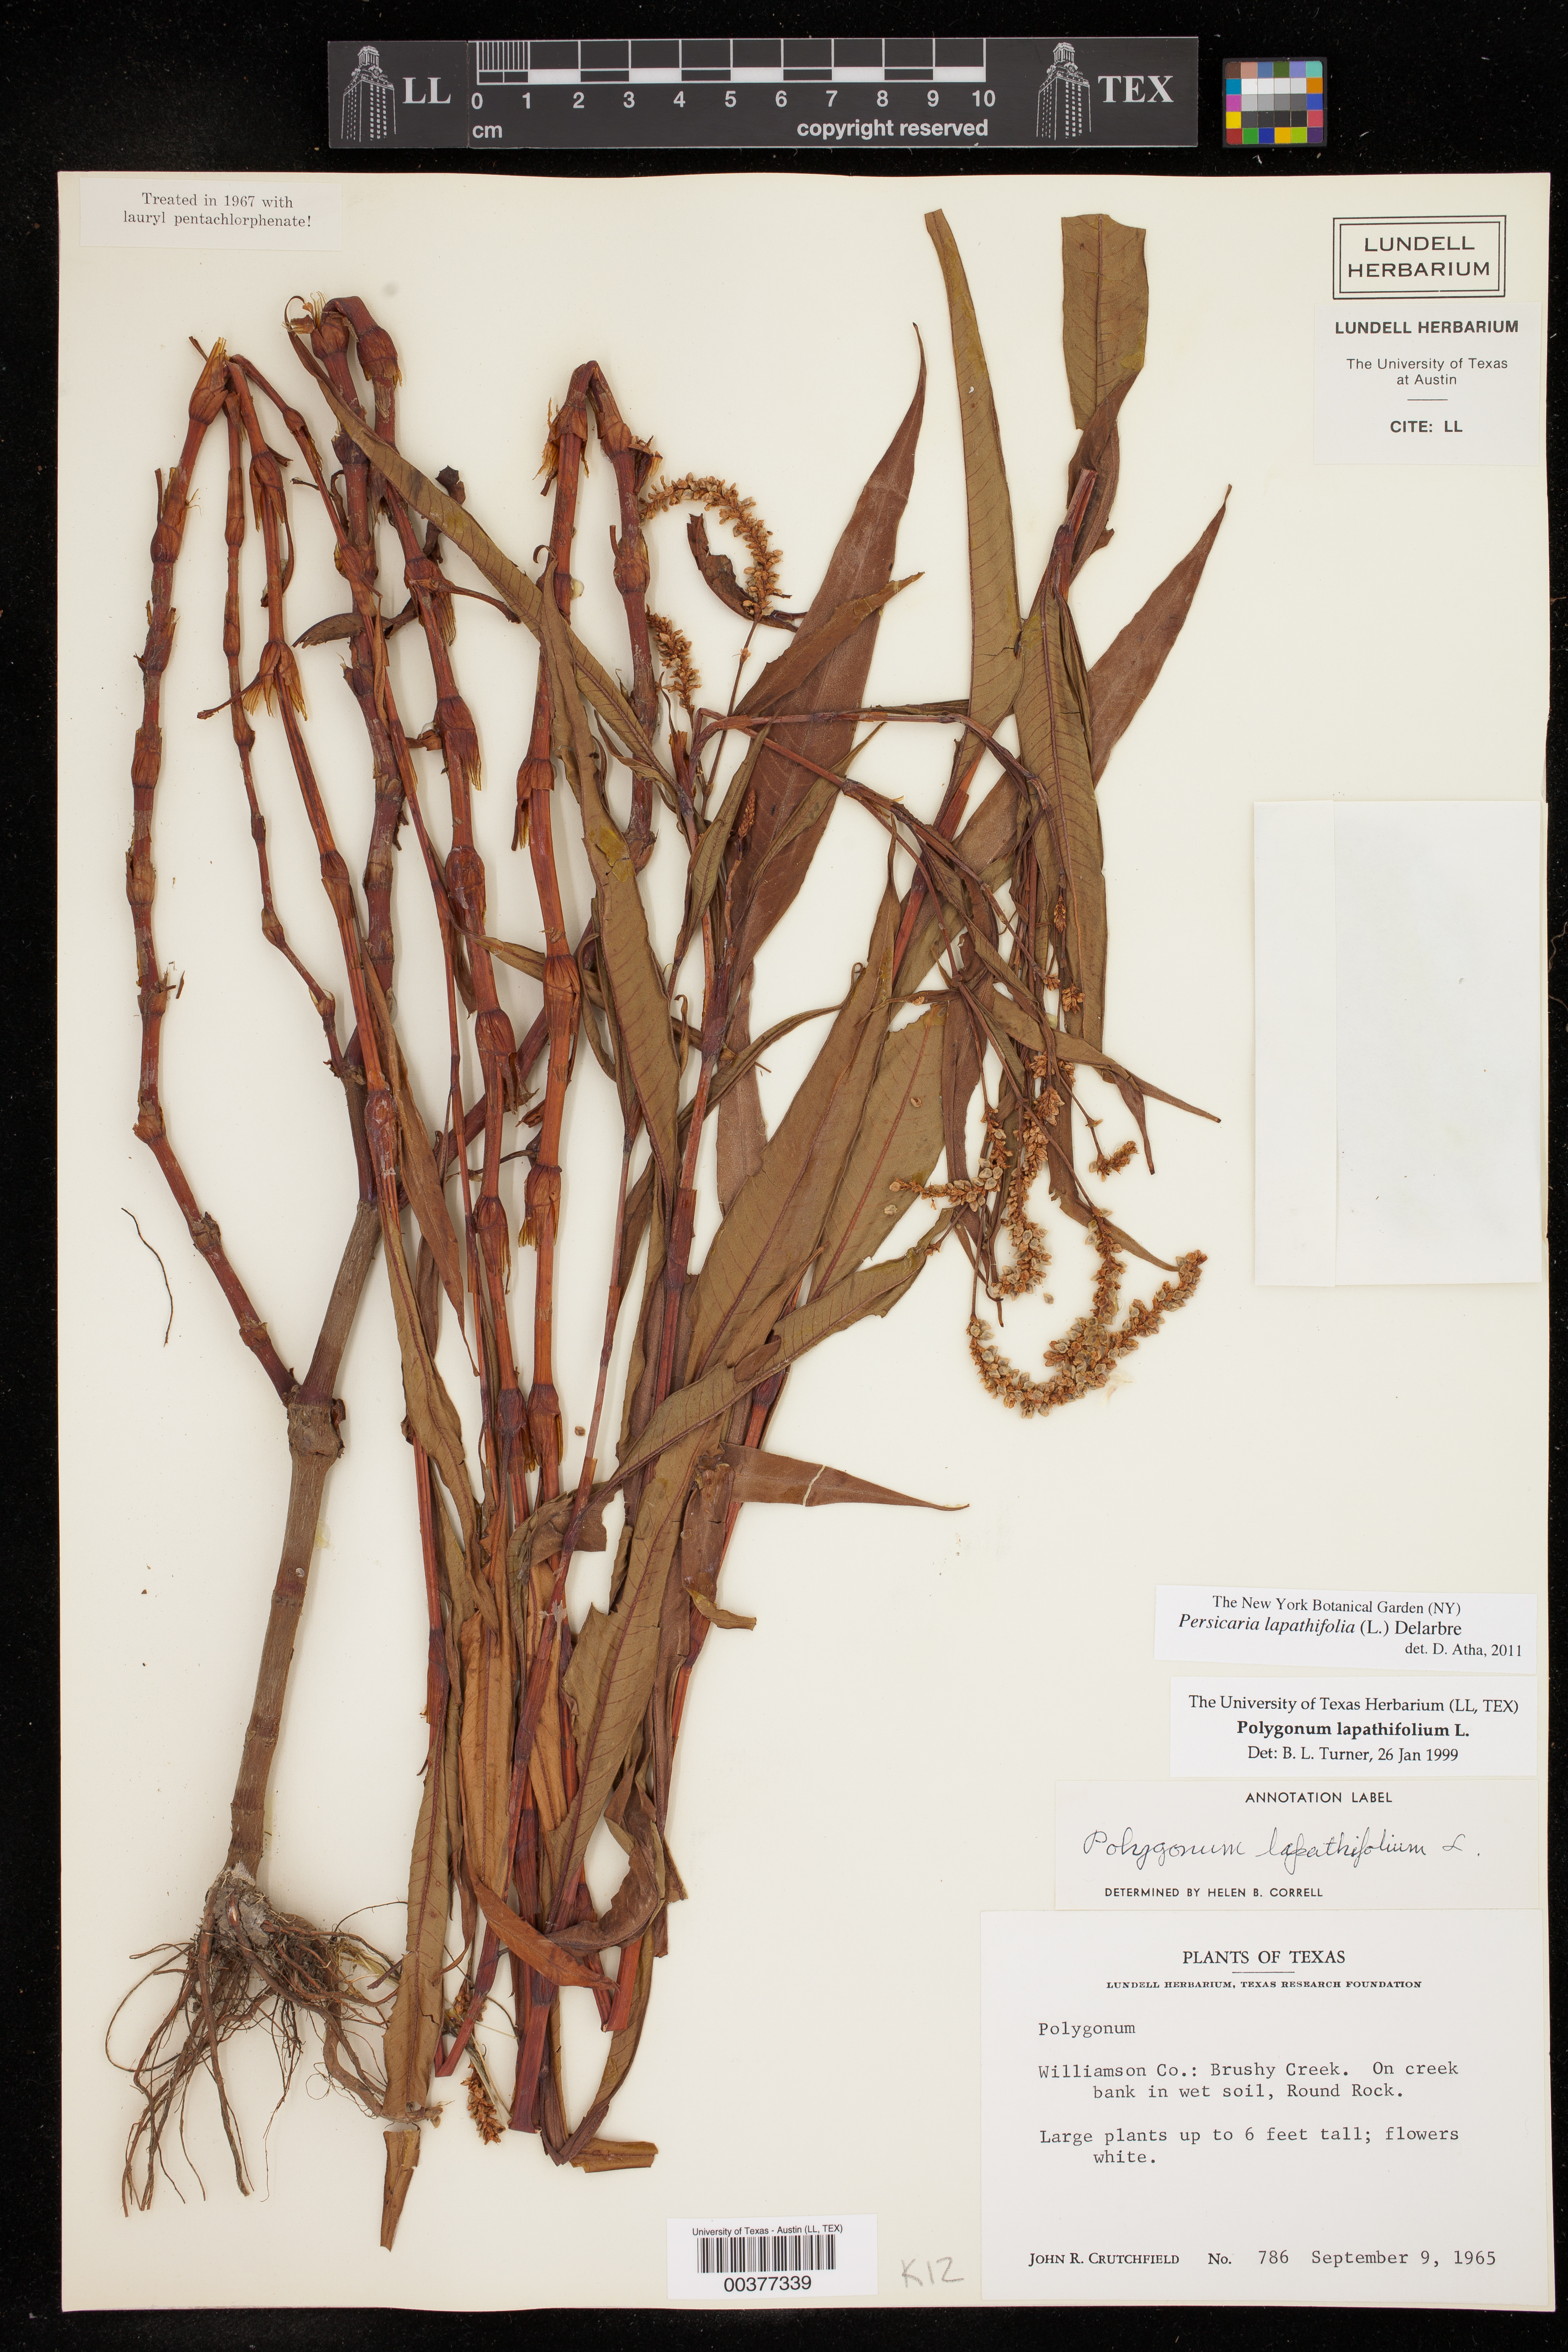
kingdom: Plantae
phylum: Tracheophyta
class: Magnoliopsida
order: Caryophyllales
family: Polygonaceae
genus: Persicaria
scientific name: Persicaria lapathifolia
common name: Curlytop knotweed
